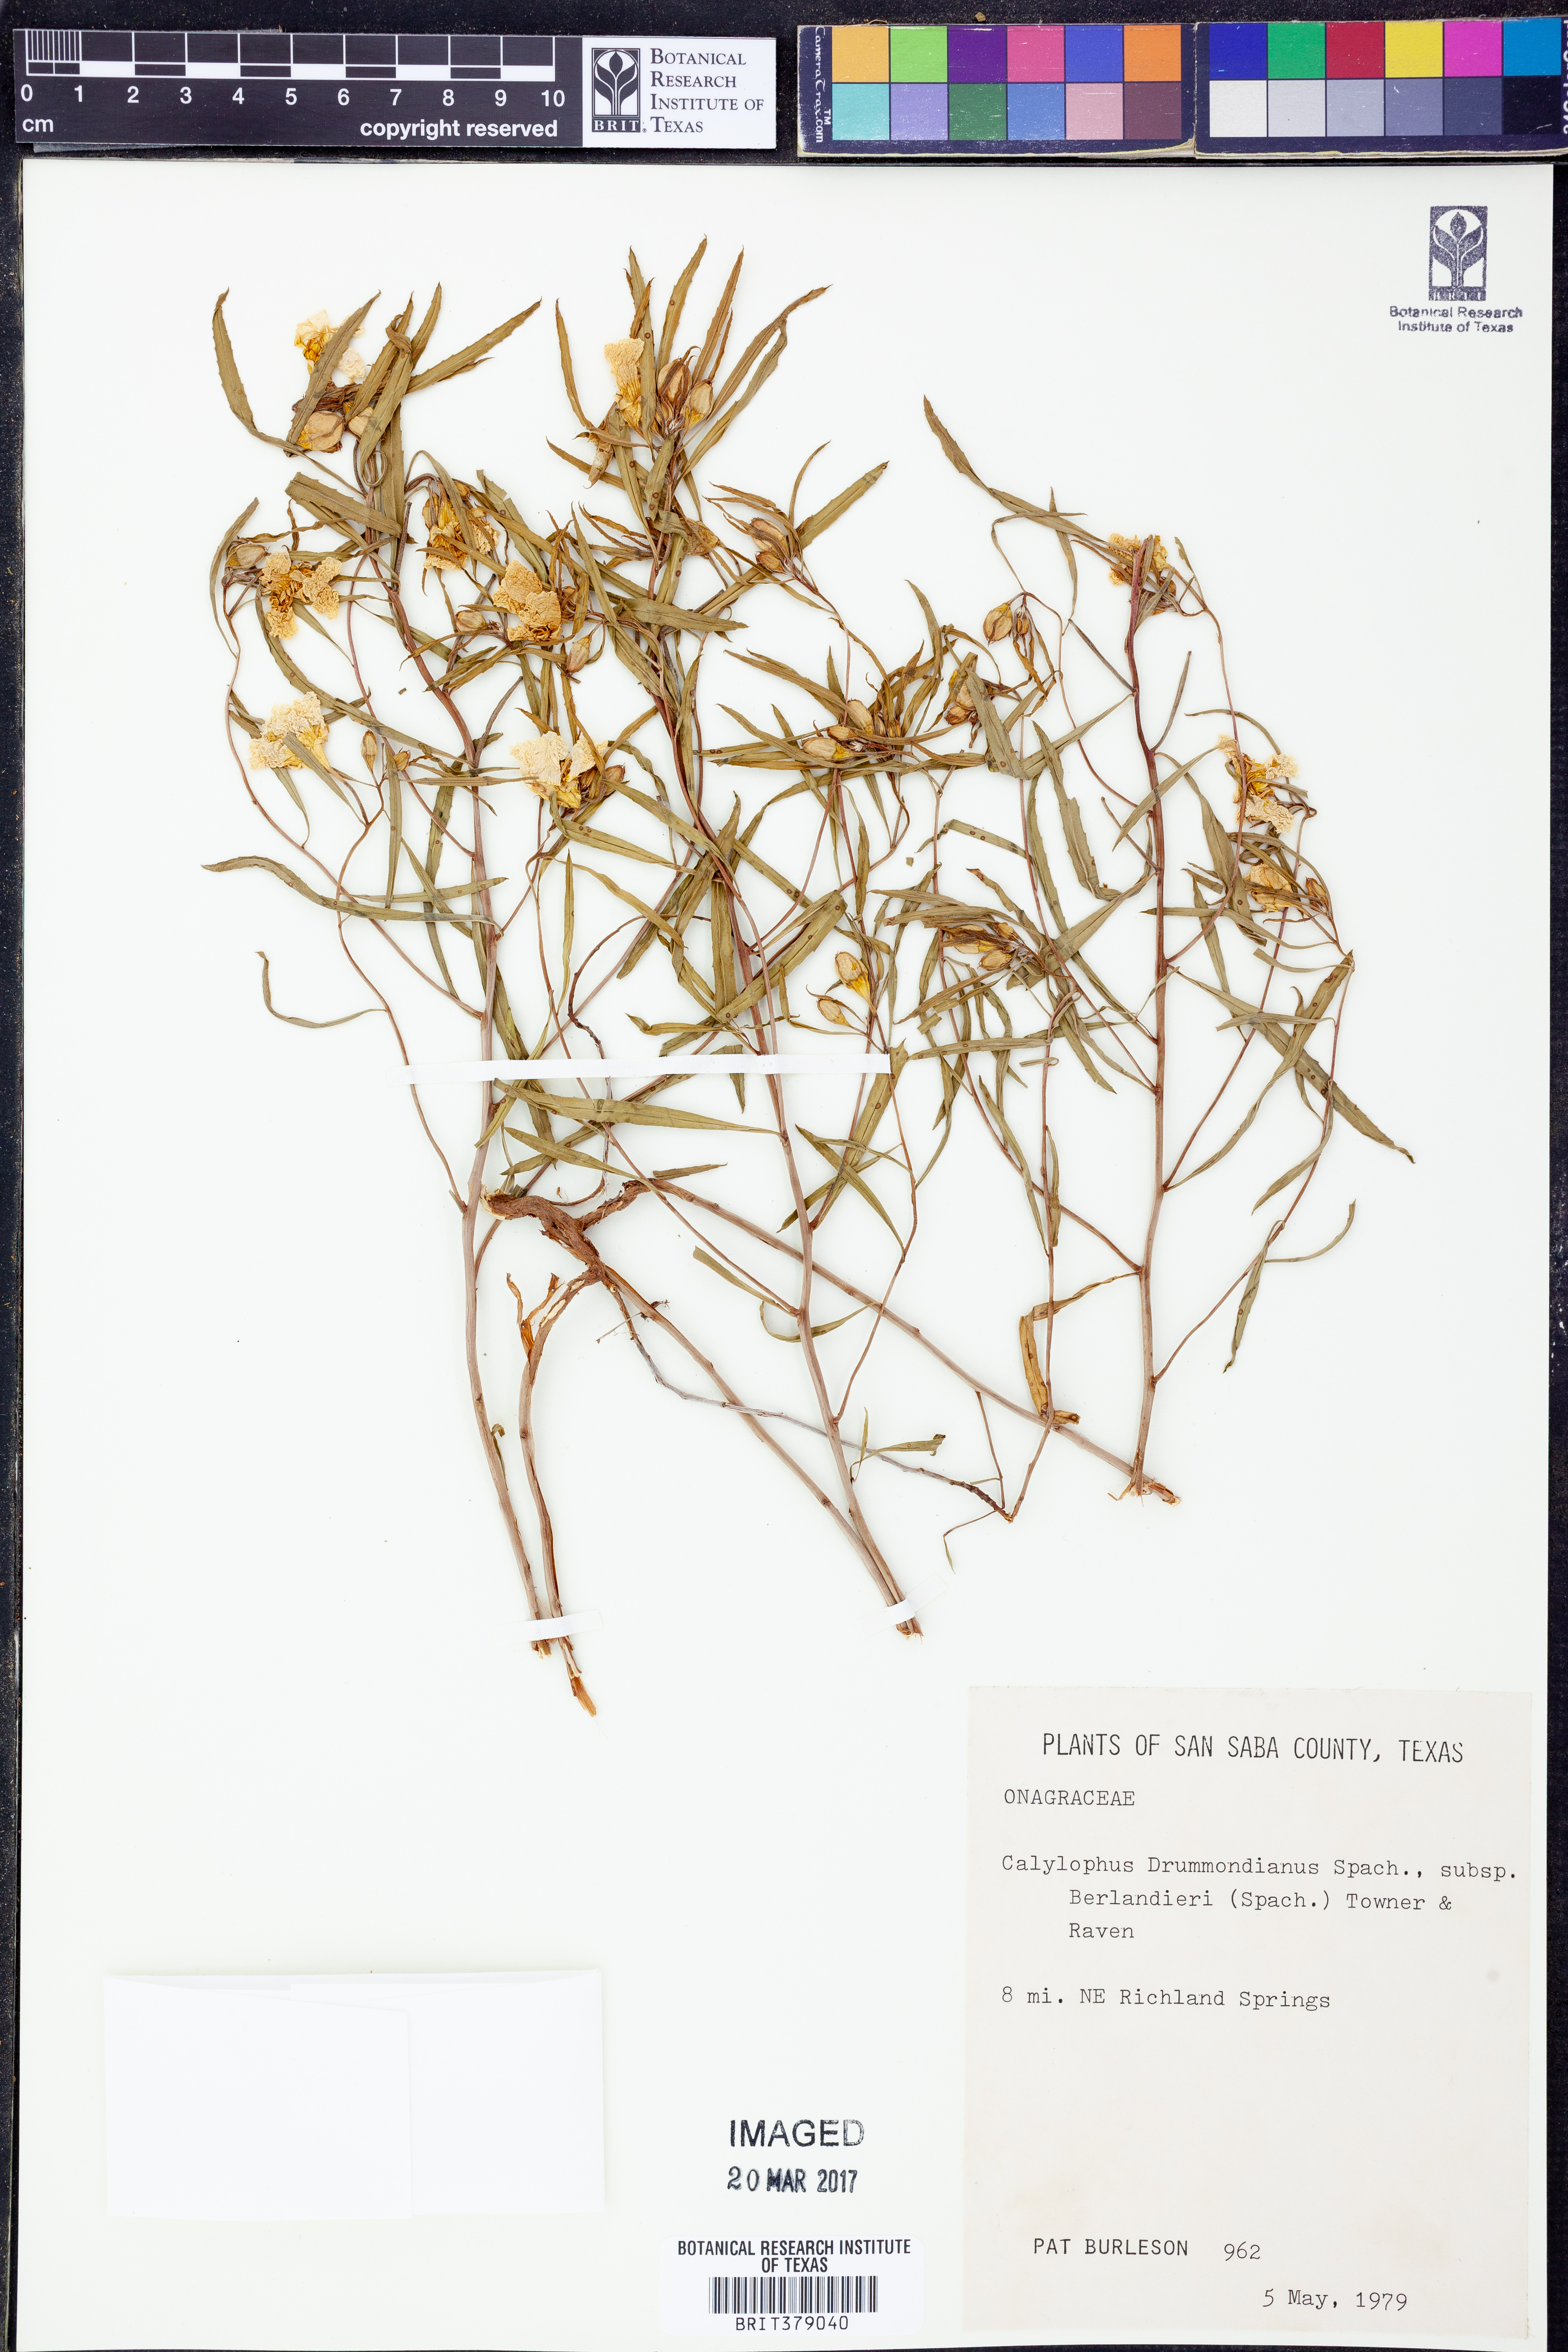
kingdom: Plantae
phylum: Tracheophyta
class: Magnoliopsida
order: Myrtales
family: Onagraceae
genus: Oenothera
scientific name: Oenothera capillifolia
